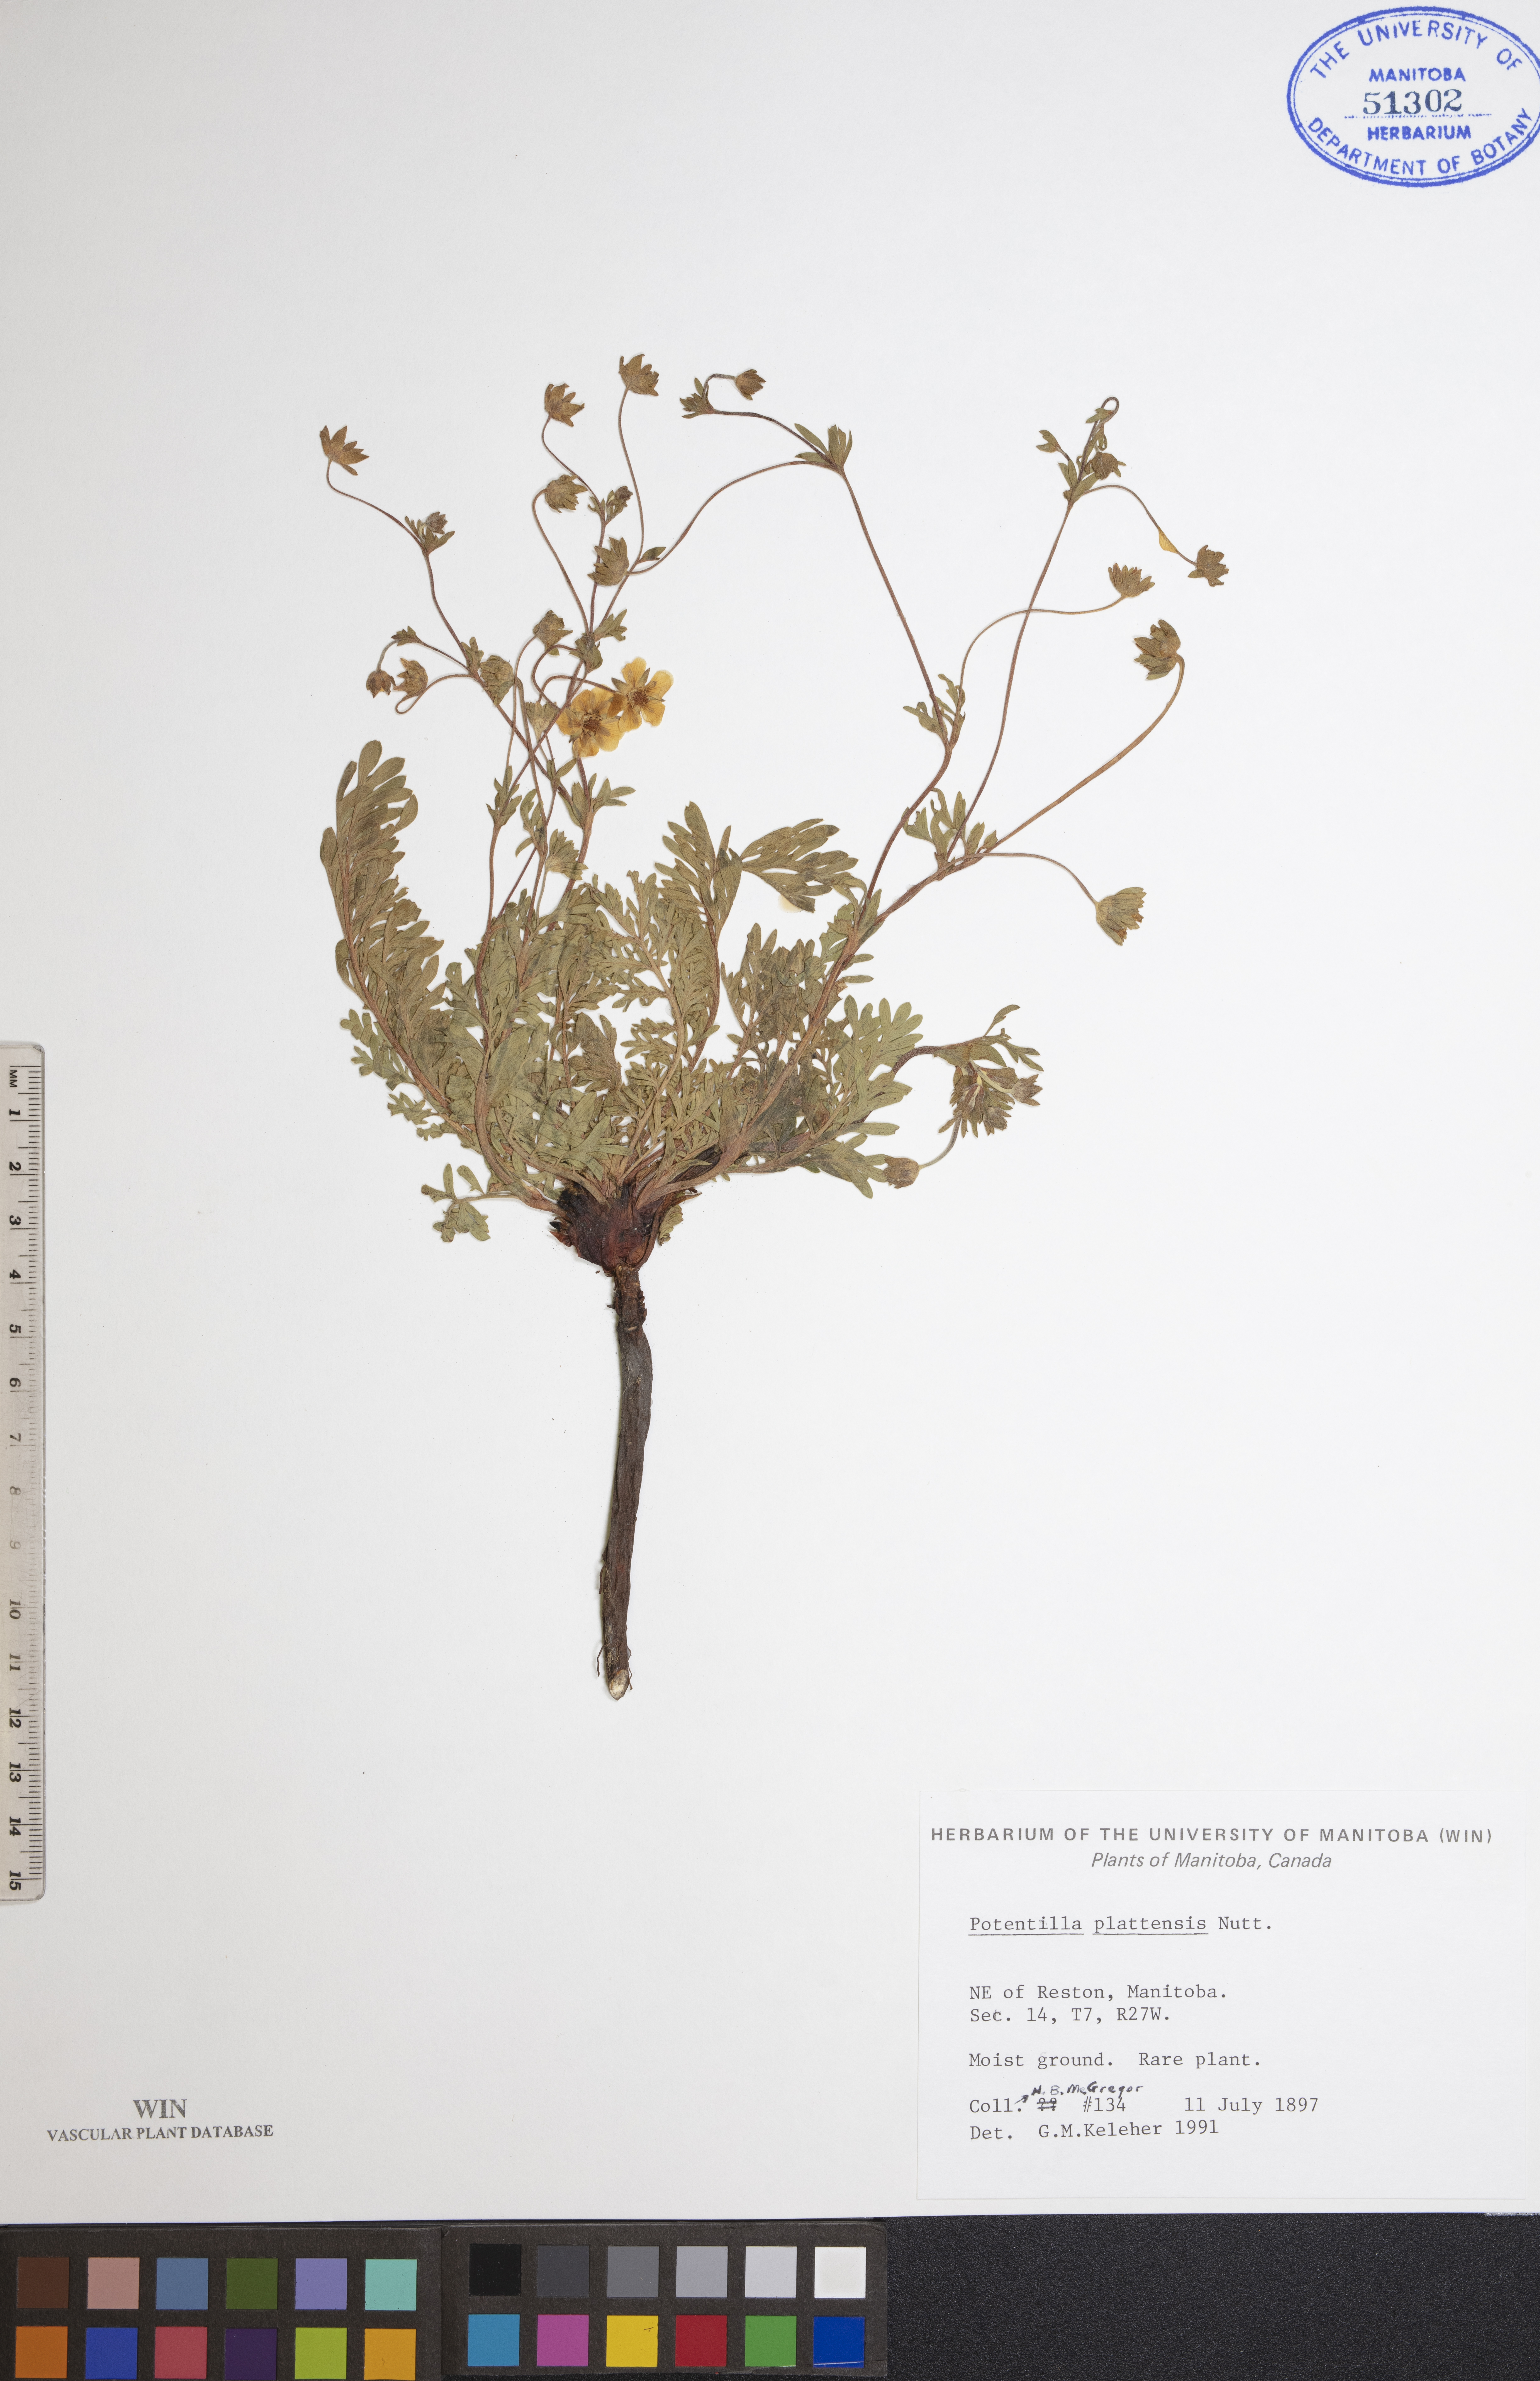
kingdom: Plantae
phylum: Tracheophyta
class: Magnoliopsida
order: Rosales
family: Rosaceae
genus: Potentilla
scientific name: Potentilla plattensis
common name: Platte river cinquefoil
